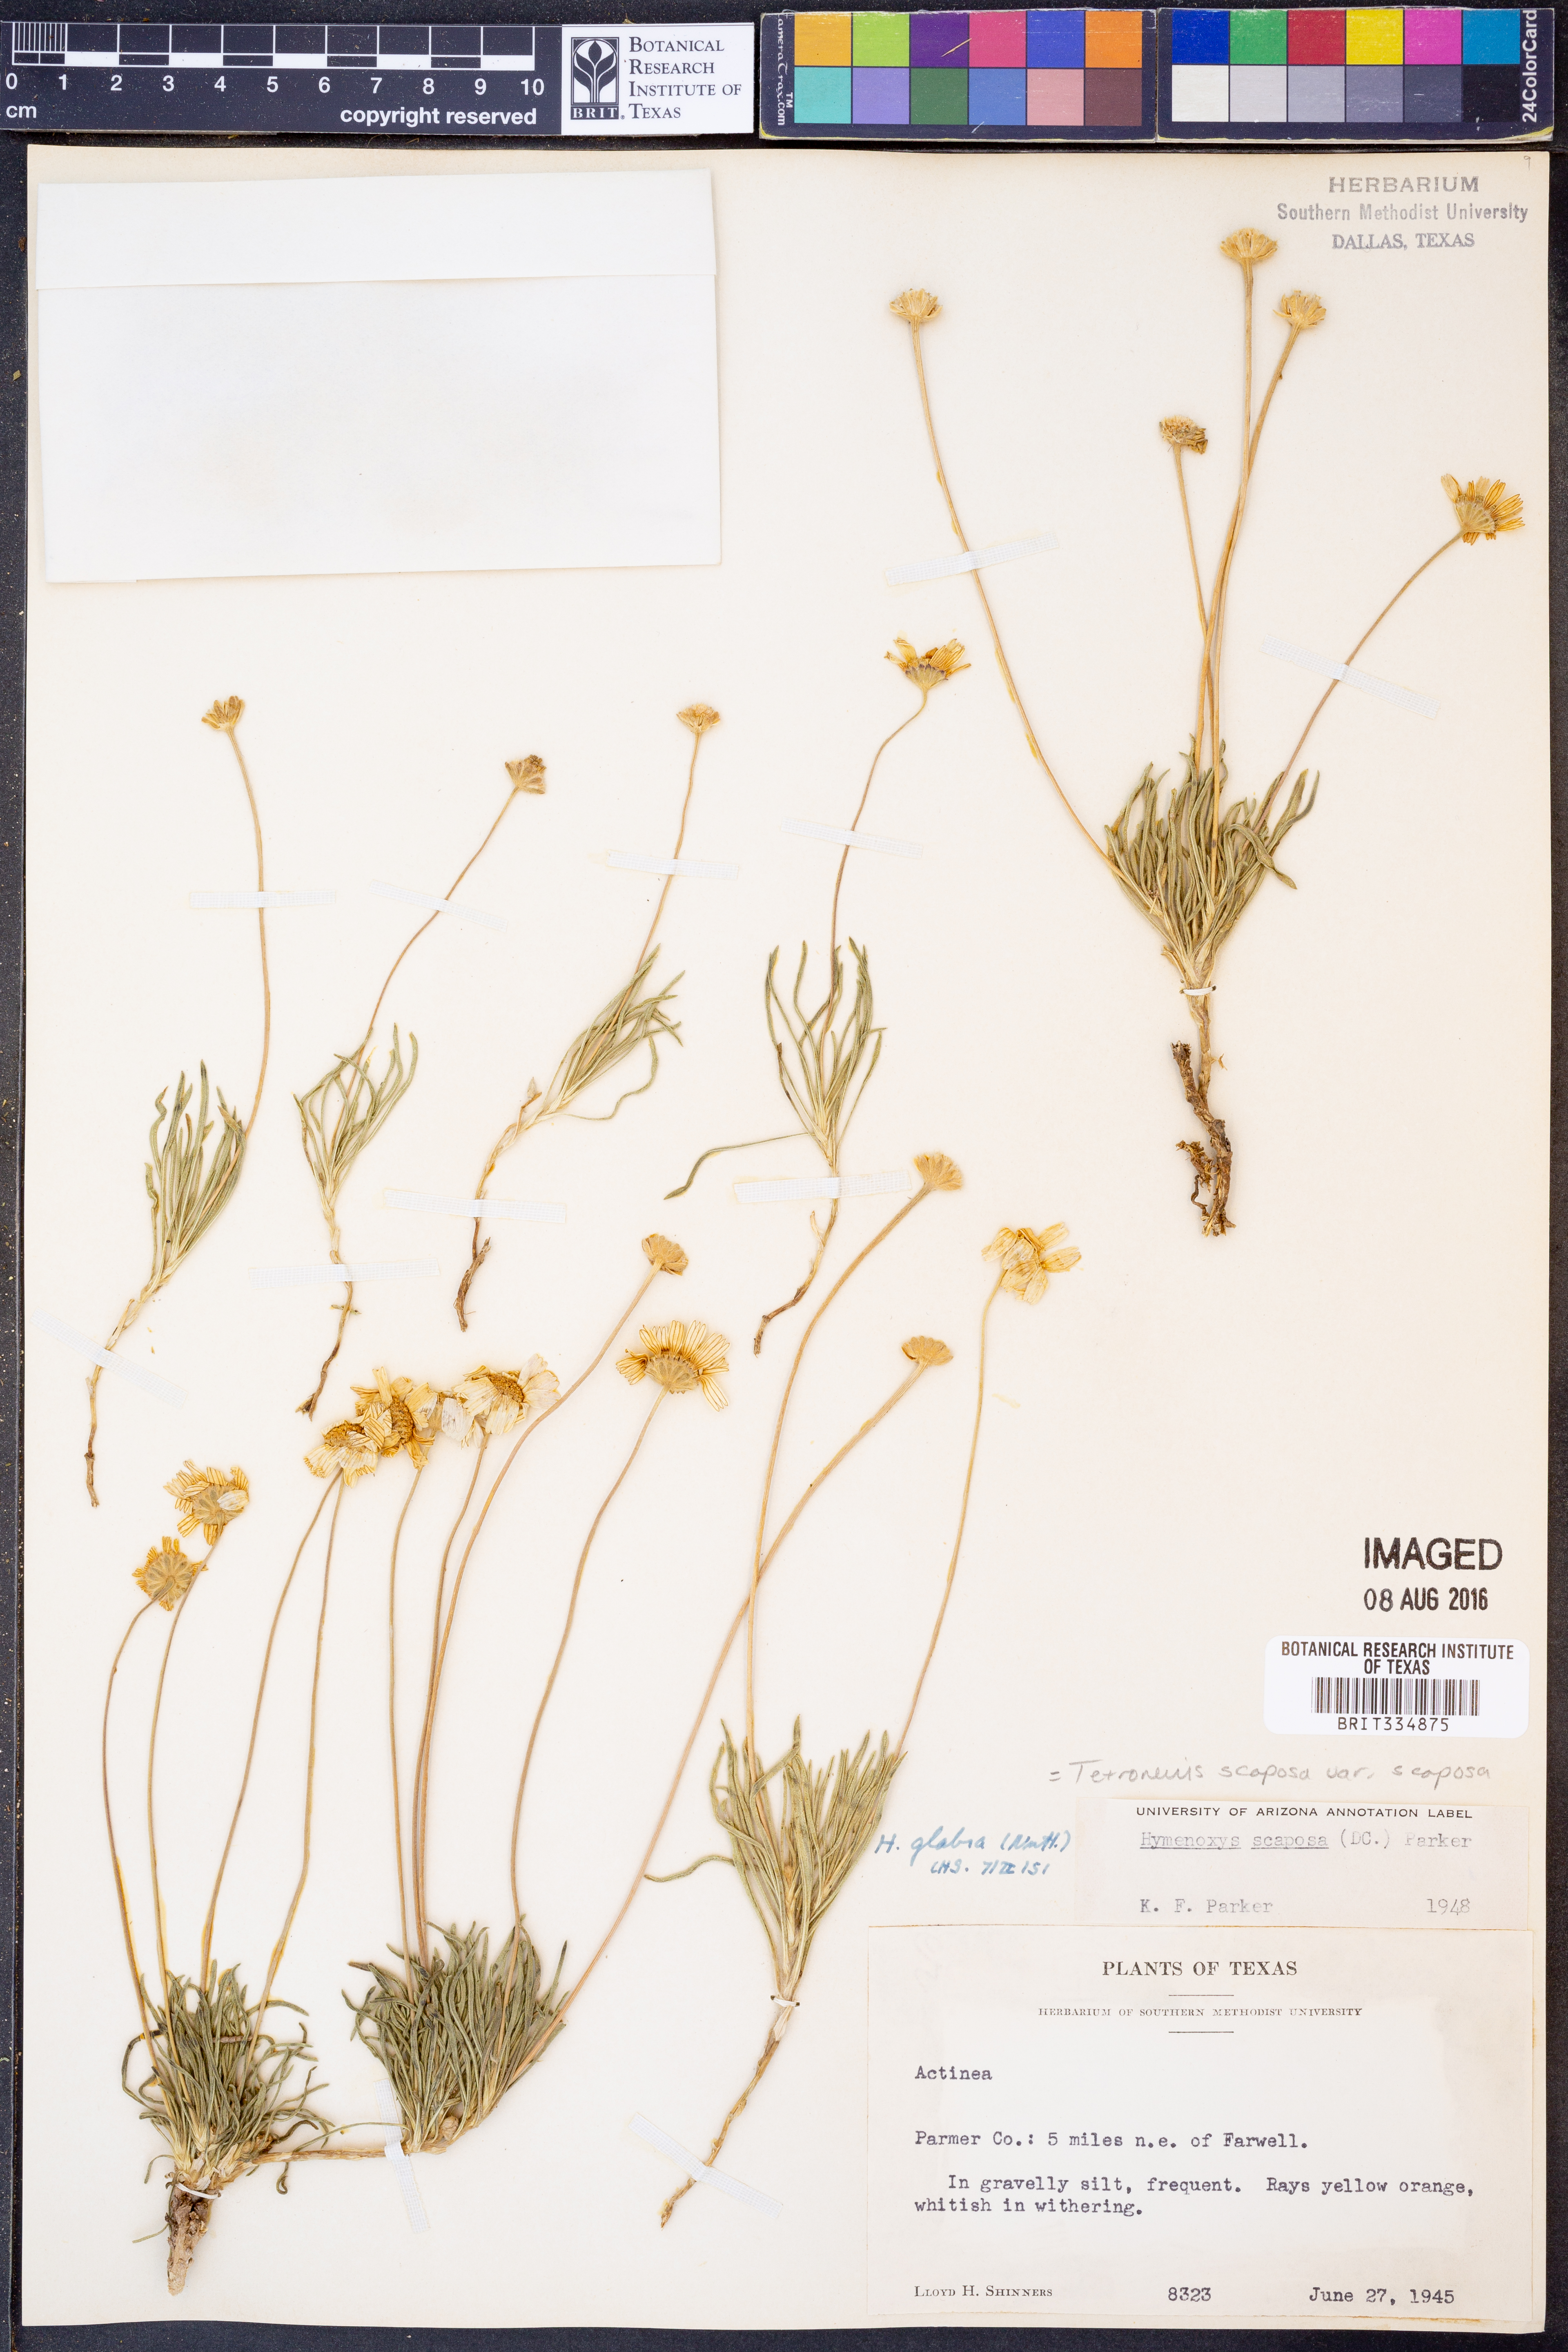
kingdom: Plantae
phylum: Tracheophyta
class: Magnoliopsida
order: Asterales
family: Asteraceae
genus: Tetraneuris
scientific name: Tetraneuris scaposa
